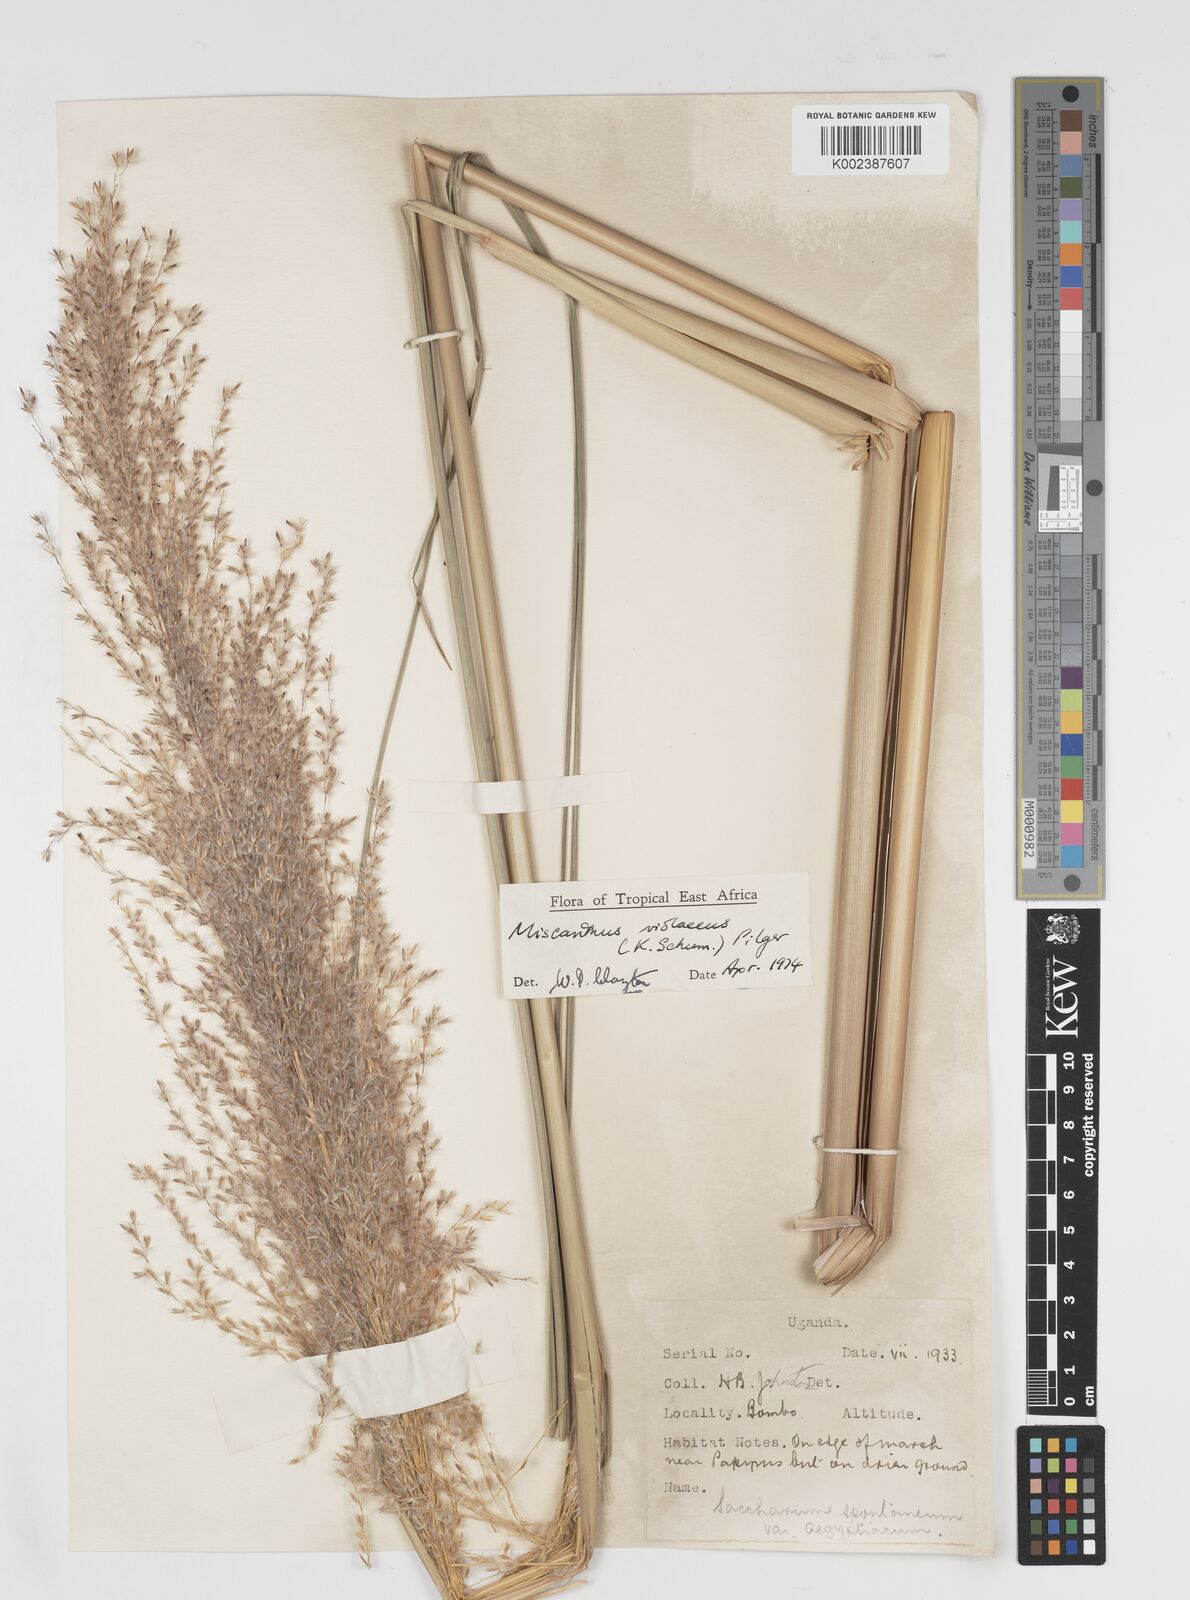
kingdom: Plantae
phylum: Tracheophyta
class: Liliopsida
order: Poales
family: Poaceae
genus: Miscanthidium
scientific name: Miscanthidium violaceum
